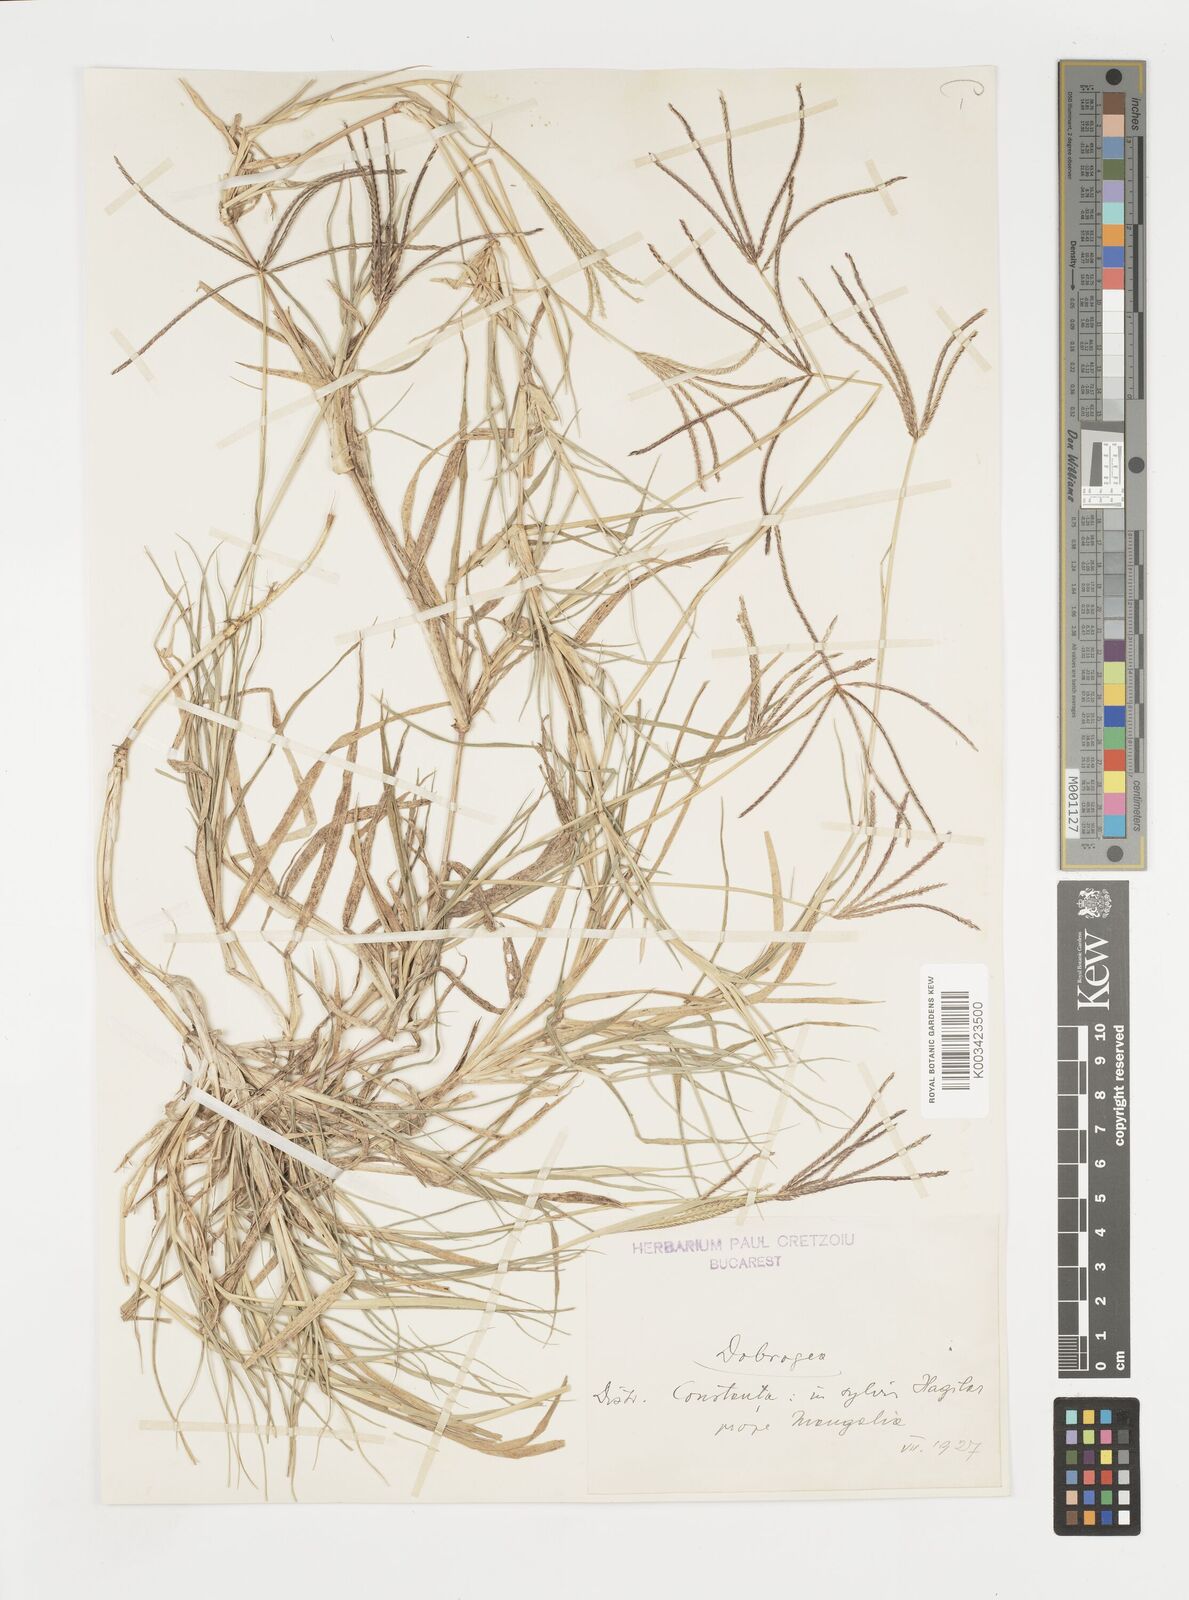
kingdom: Plantae
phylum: Tracheophyta
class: Liliopsida
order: Poales
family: Poaceae
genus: Cynodon
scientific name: Cynodon dactylon
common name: Bermuda grass
